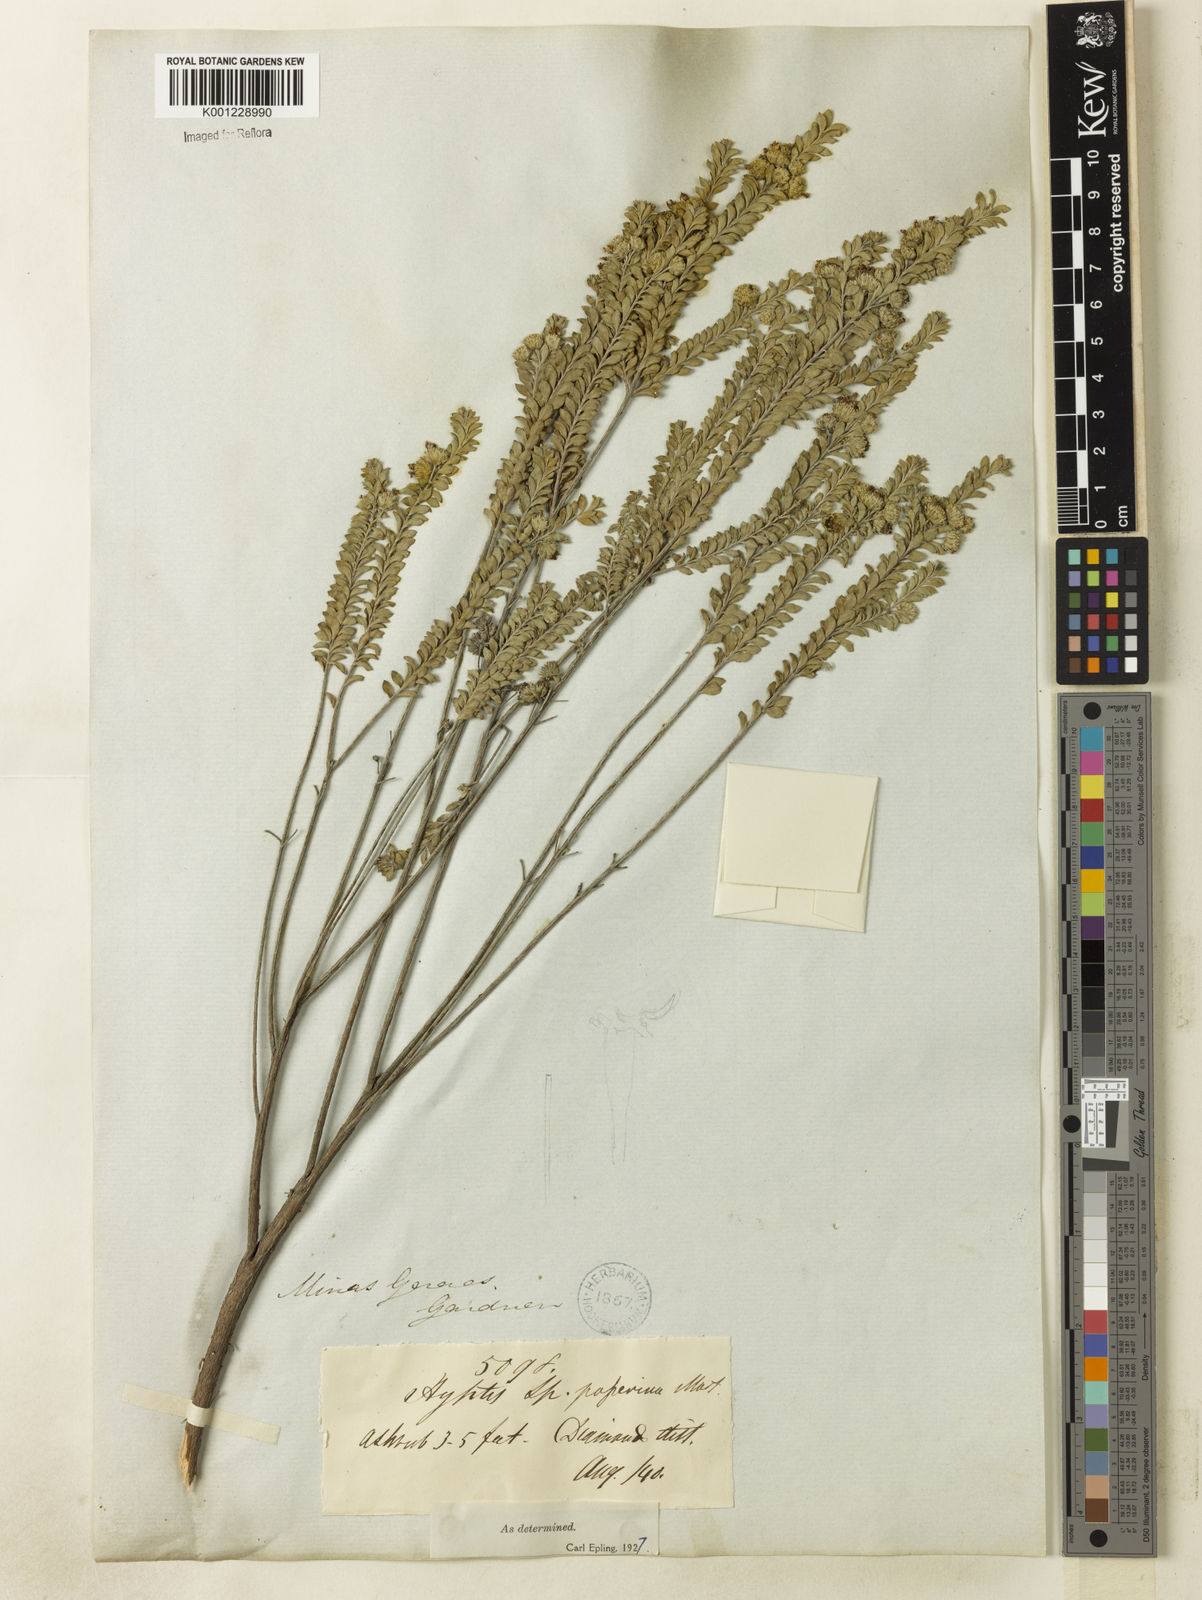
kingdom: Plantae
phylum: Tracheophyta
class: Magnoliopsida
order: Lamiales
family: Lamiaceae
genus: Hyptis
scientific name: Hyptis passerina
